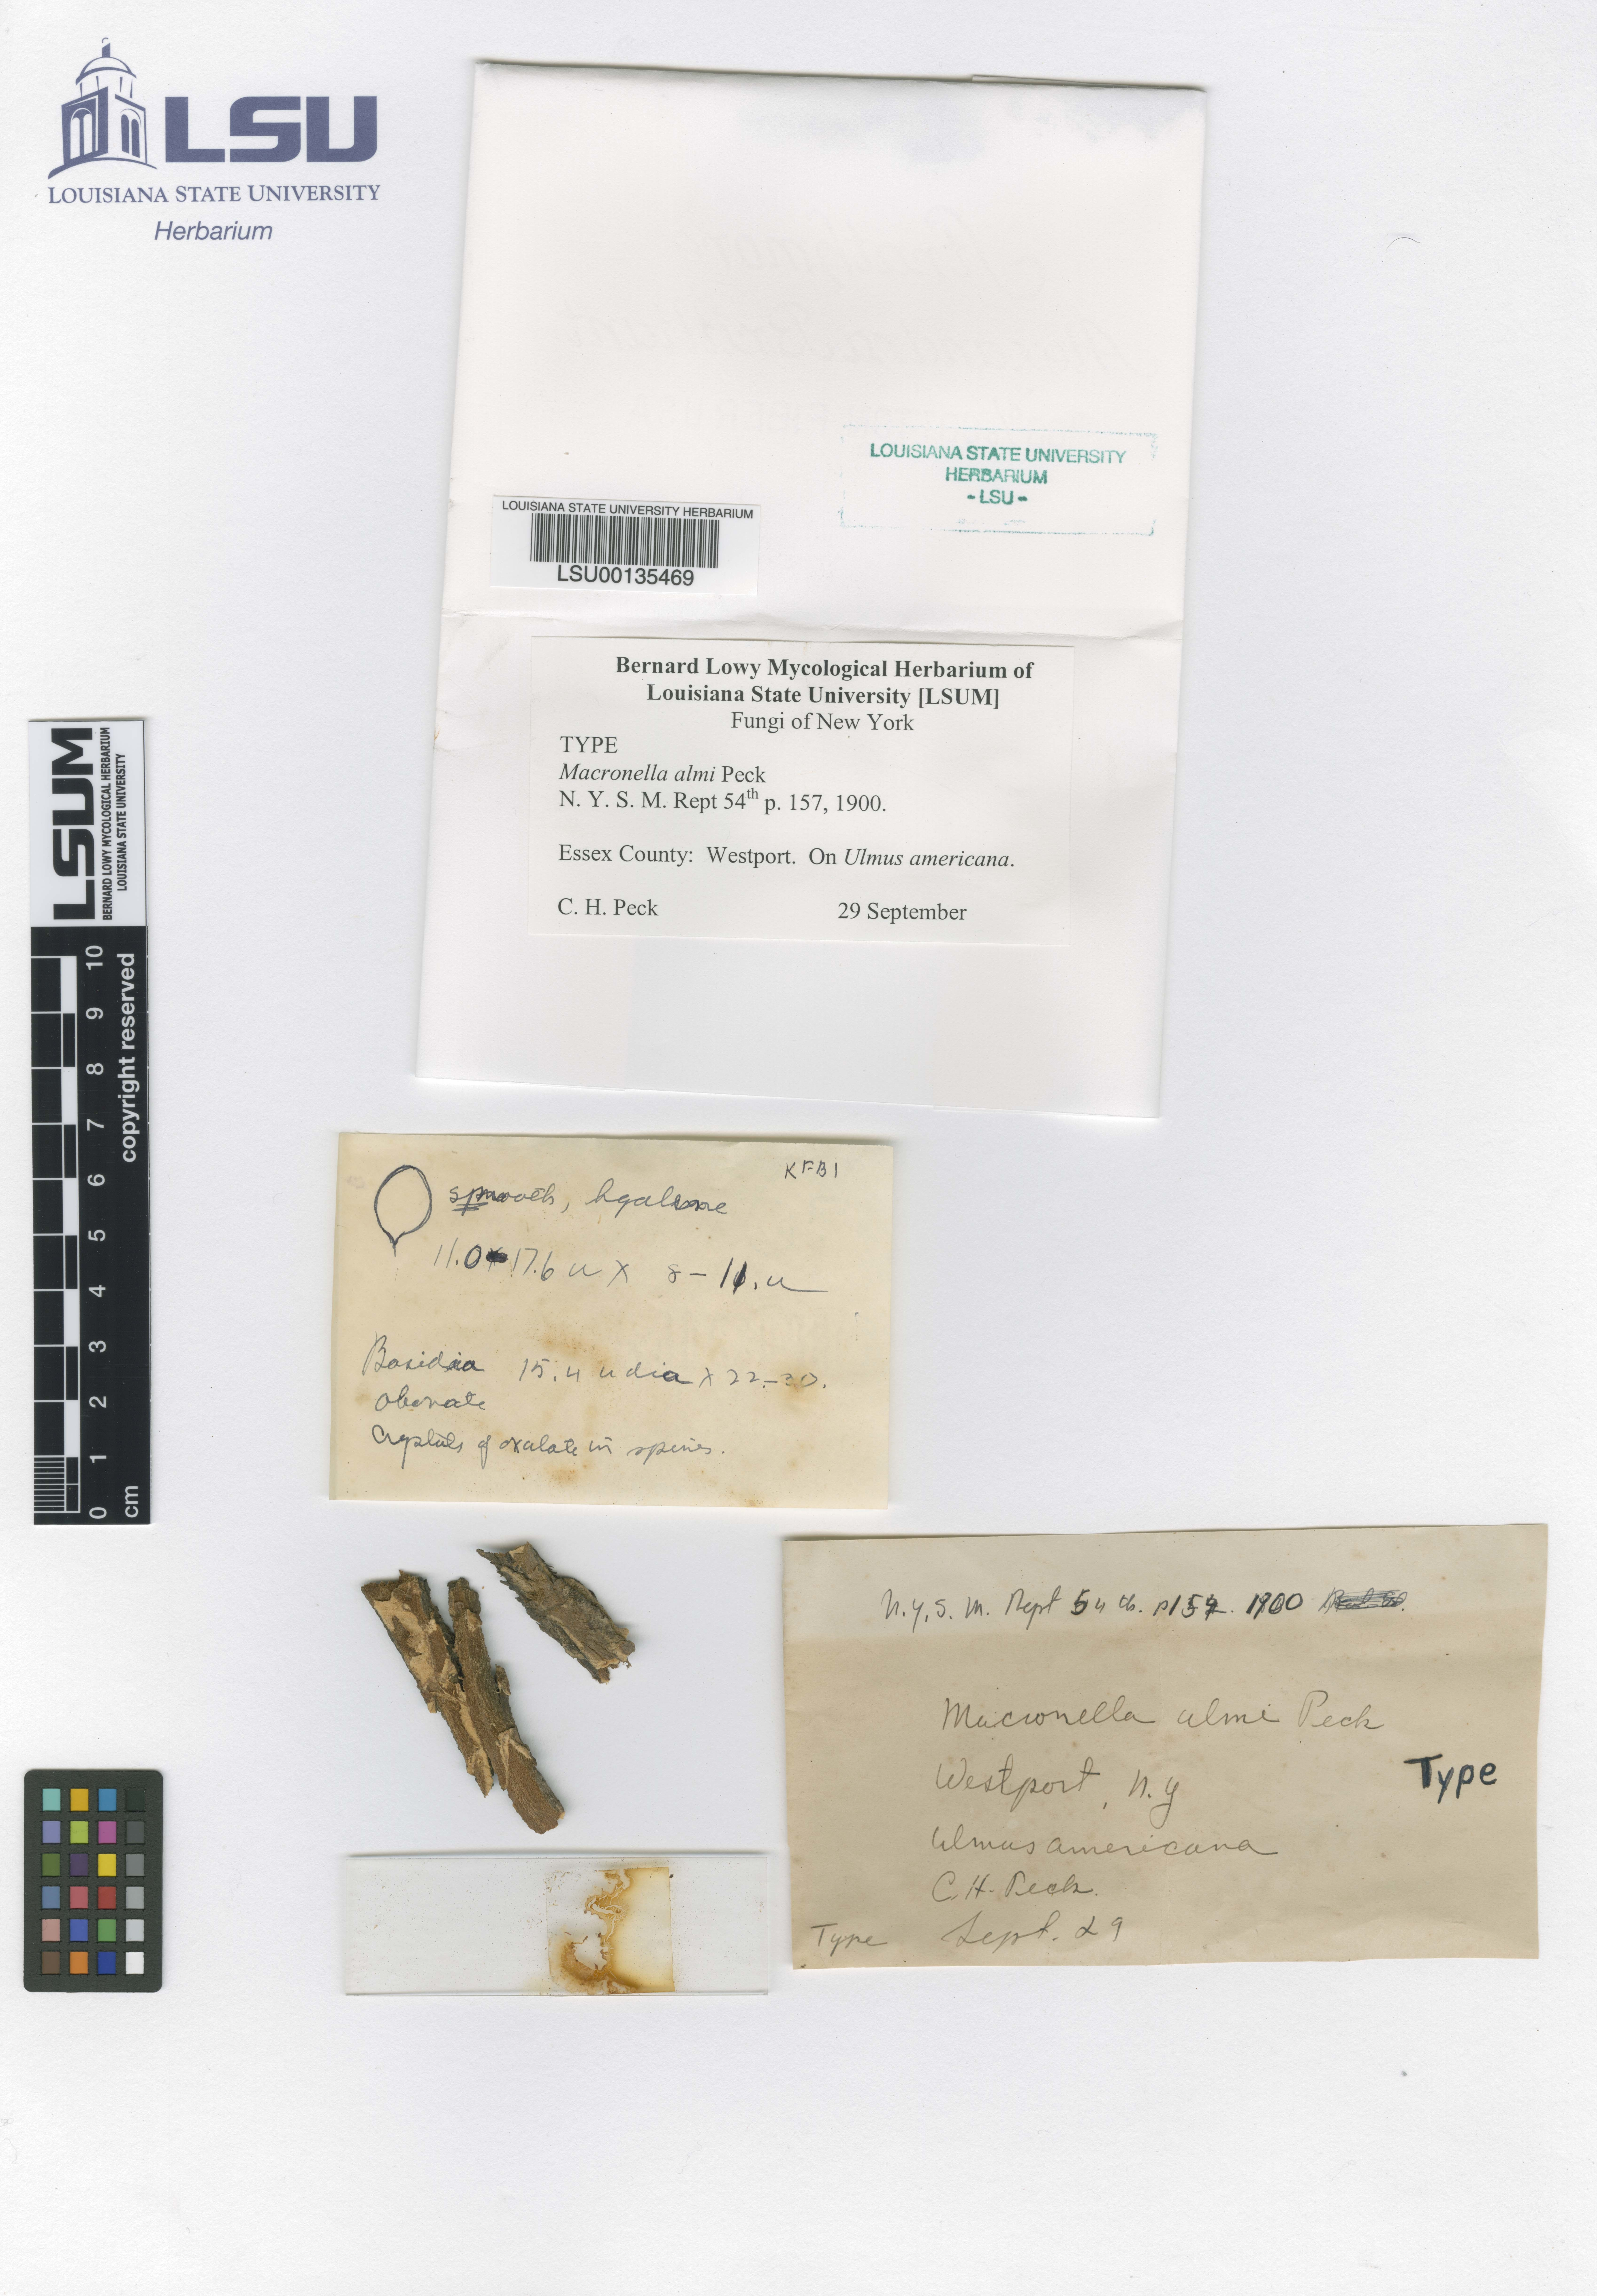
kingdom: Fungi
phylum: Basidiomycota
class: Agaricomycetes
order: Agaricales
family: Pterulaceae
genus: Pterulicium
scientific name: Pterulicium ulmi
